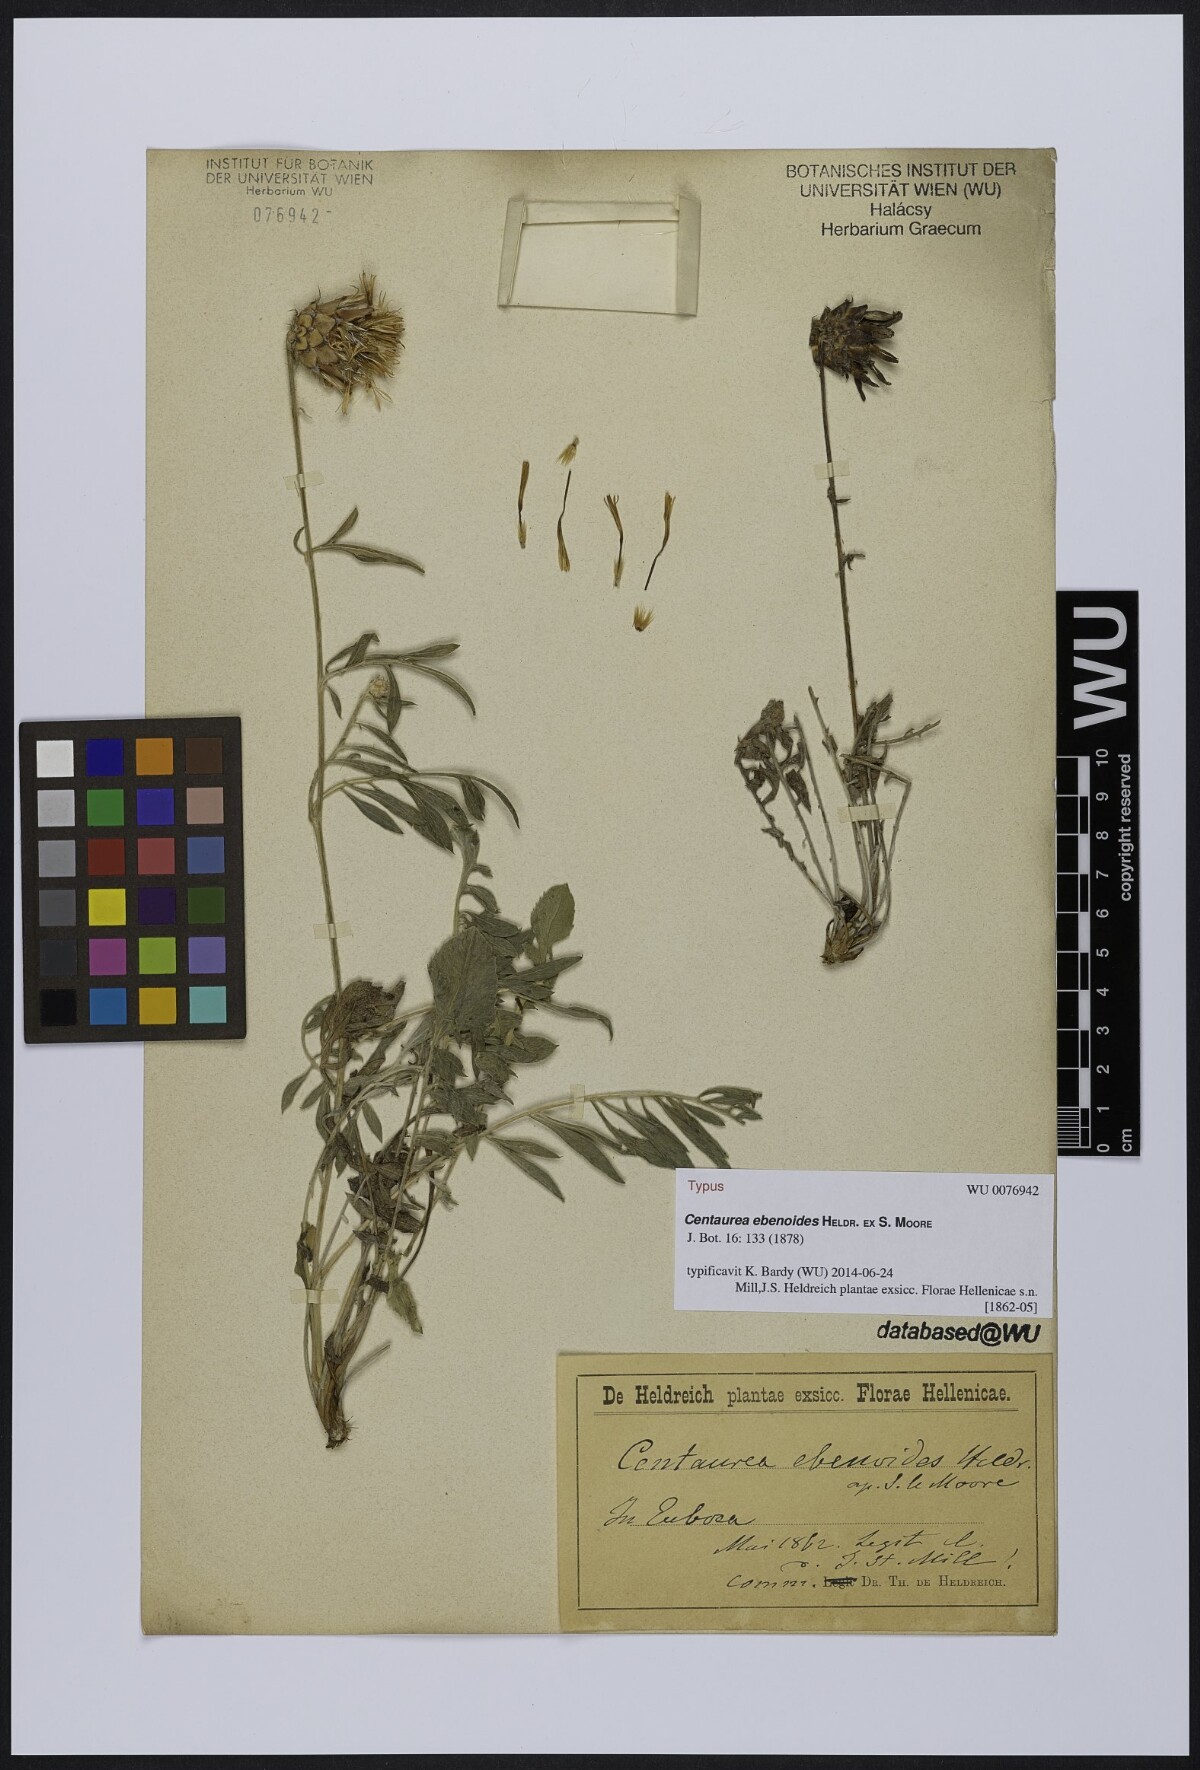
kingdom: Plantae
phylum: Tracheophyta
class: Magnoliopsida
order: Asterales
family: Asteraceae
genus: Centaurea
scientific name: Centaurea ebenoides
